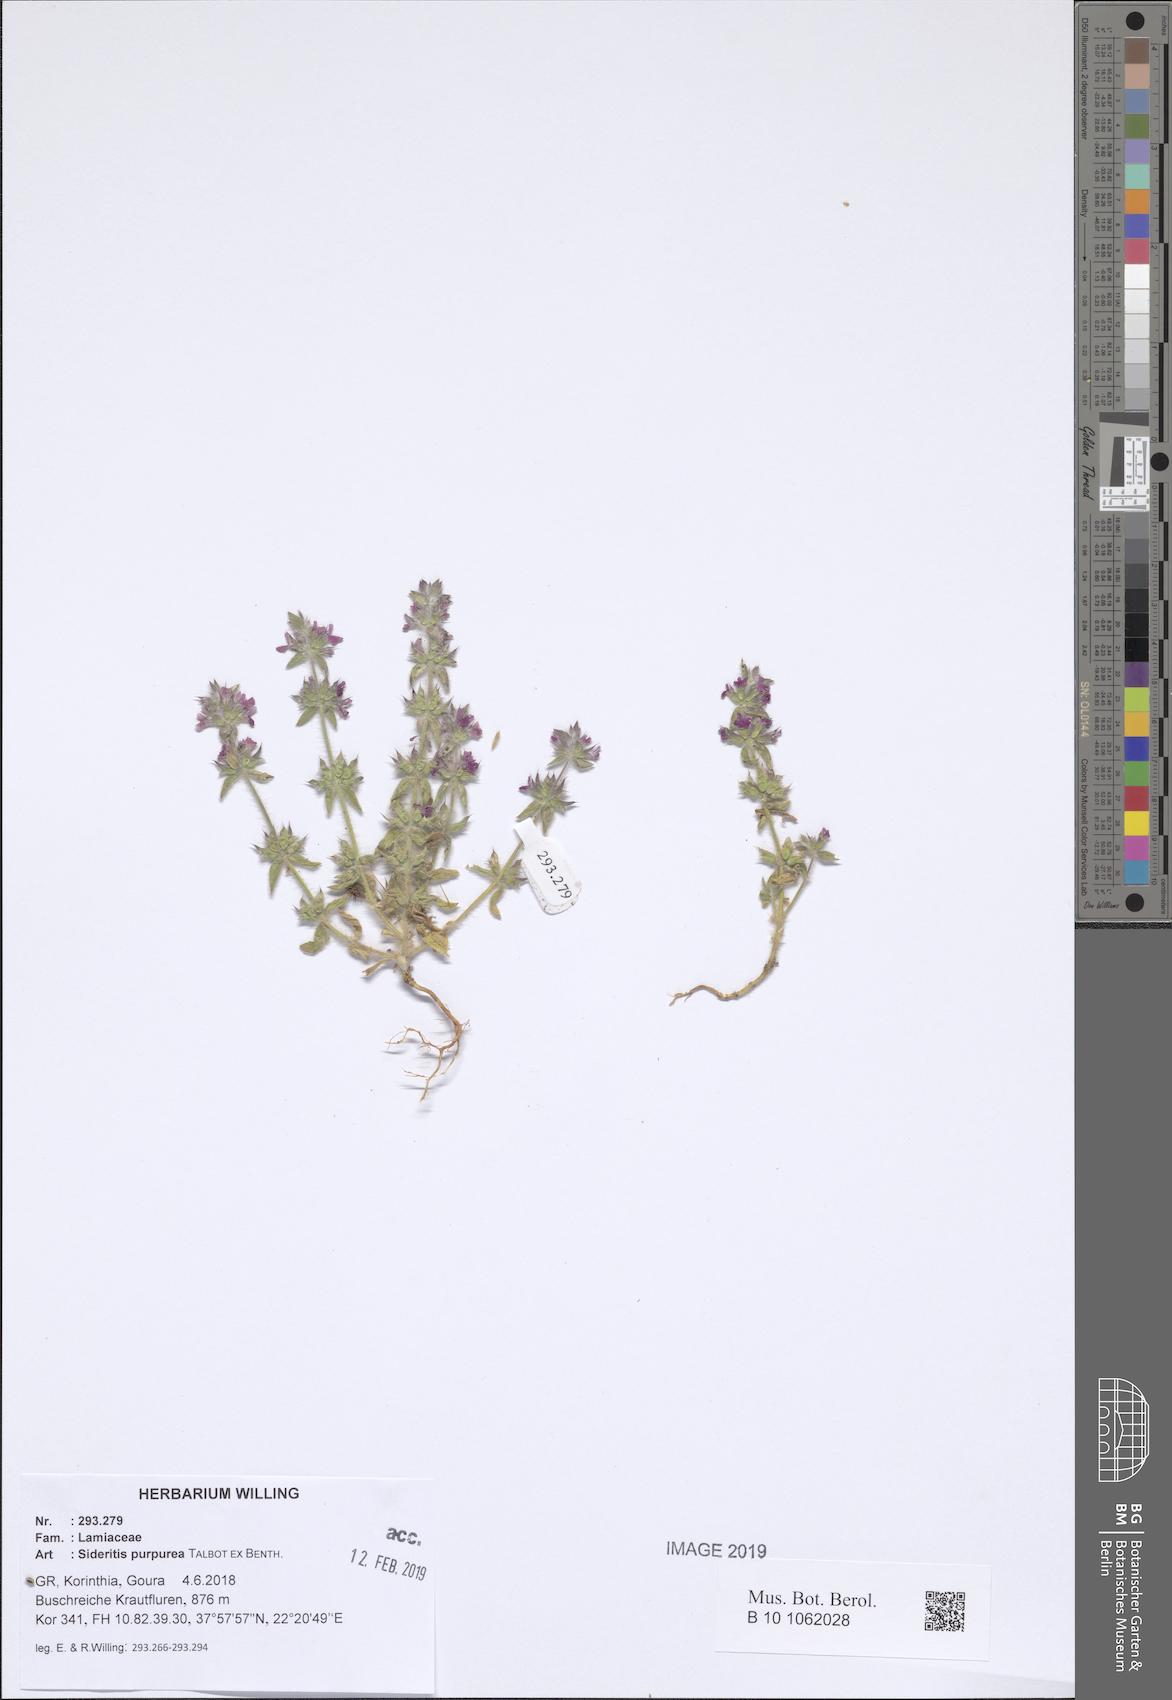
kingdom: Plantae
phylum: Tracheophyta
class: Magnoliopsida
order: Lamiales
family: Lamiaceae
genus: Sideritis
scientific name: Sideritis romana
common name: Simplebeak ironwort
